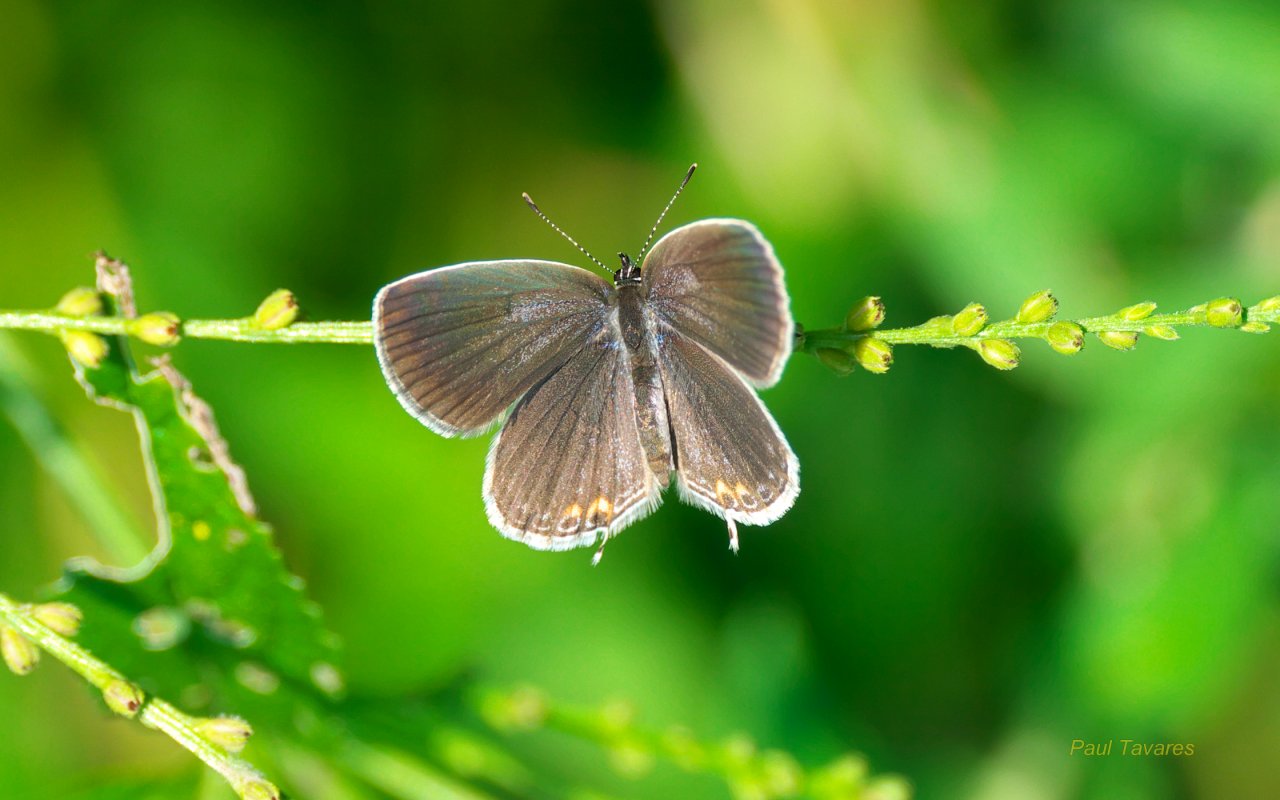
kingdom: Animalia
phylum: Arthropoda
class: Insecta
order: Lepidoptera
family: Lycaenidae
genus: Elkalyce
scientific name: Elkalyce comyntas
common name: Eastern Tailed-Blue
